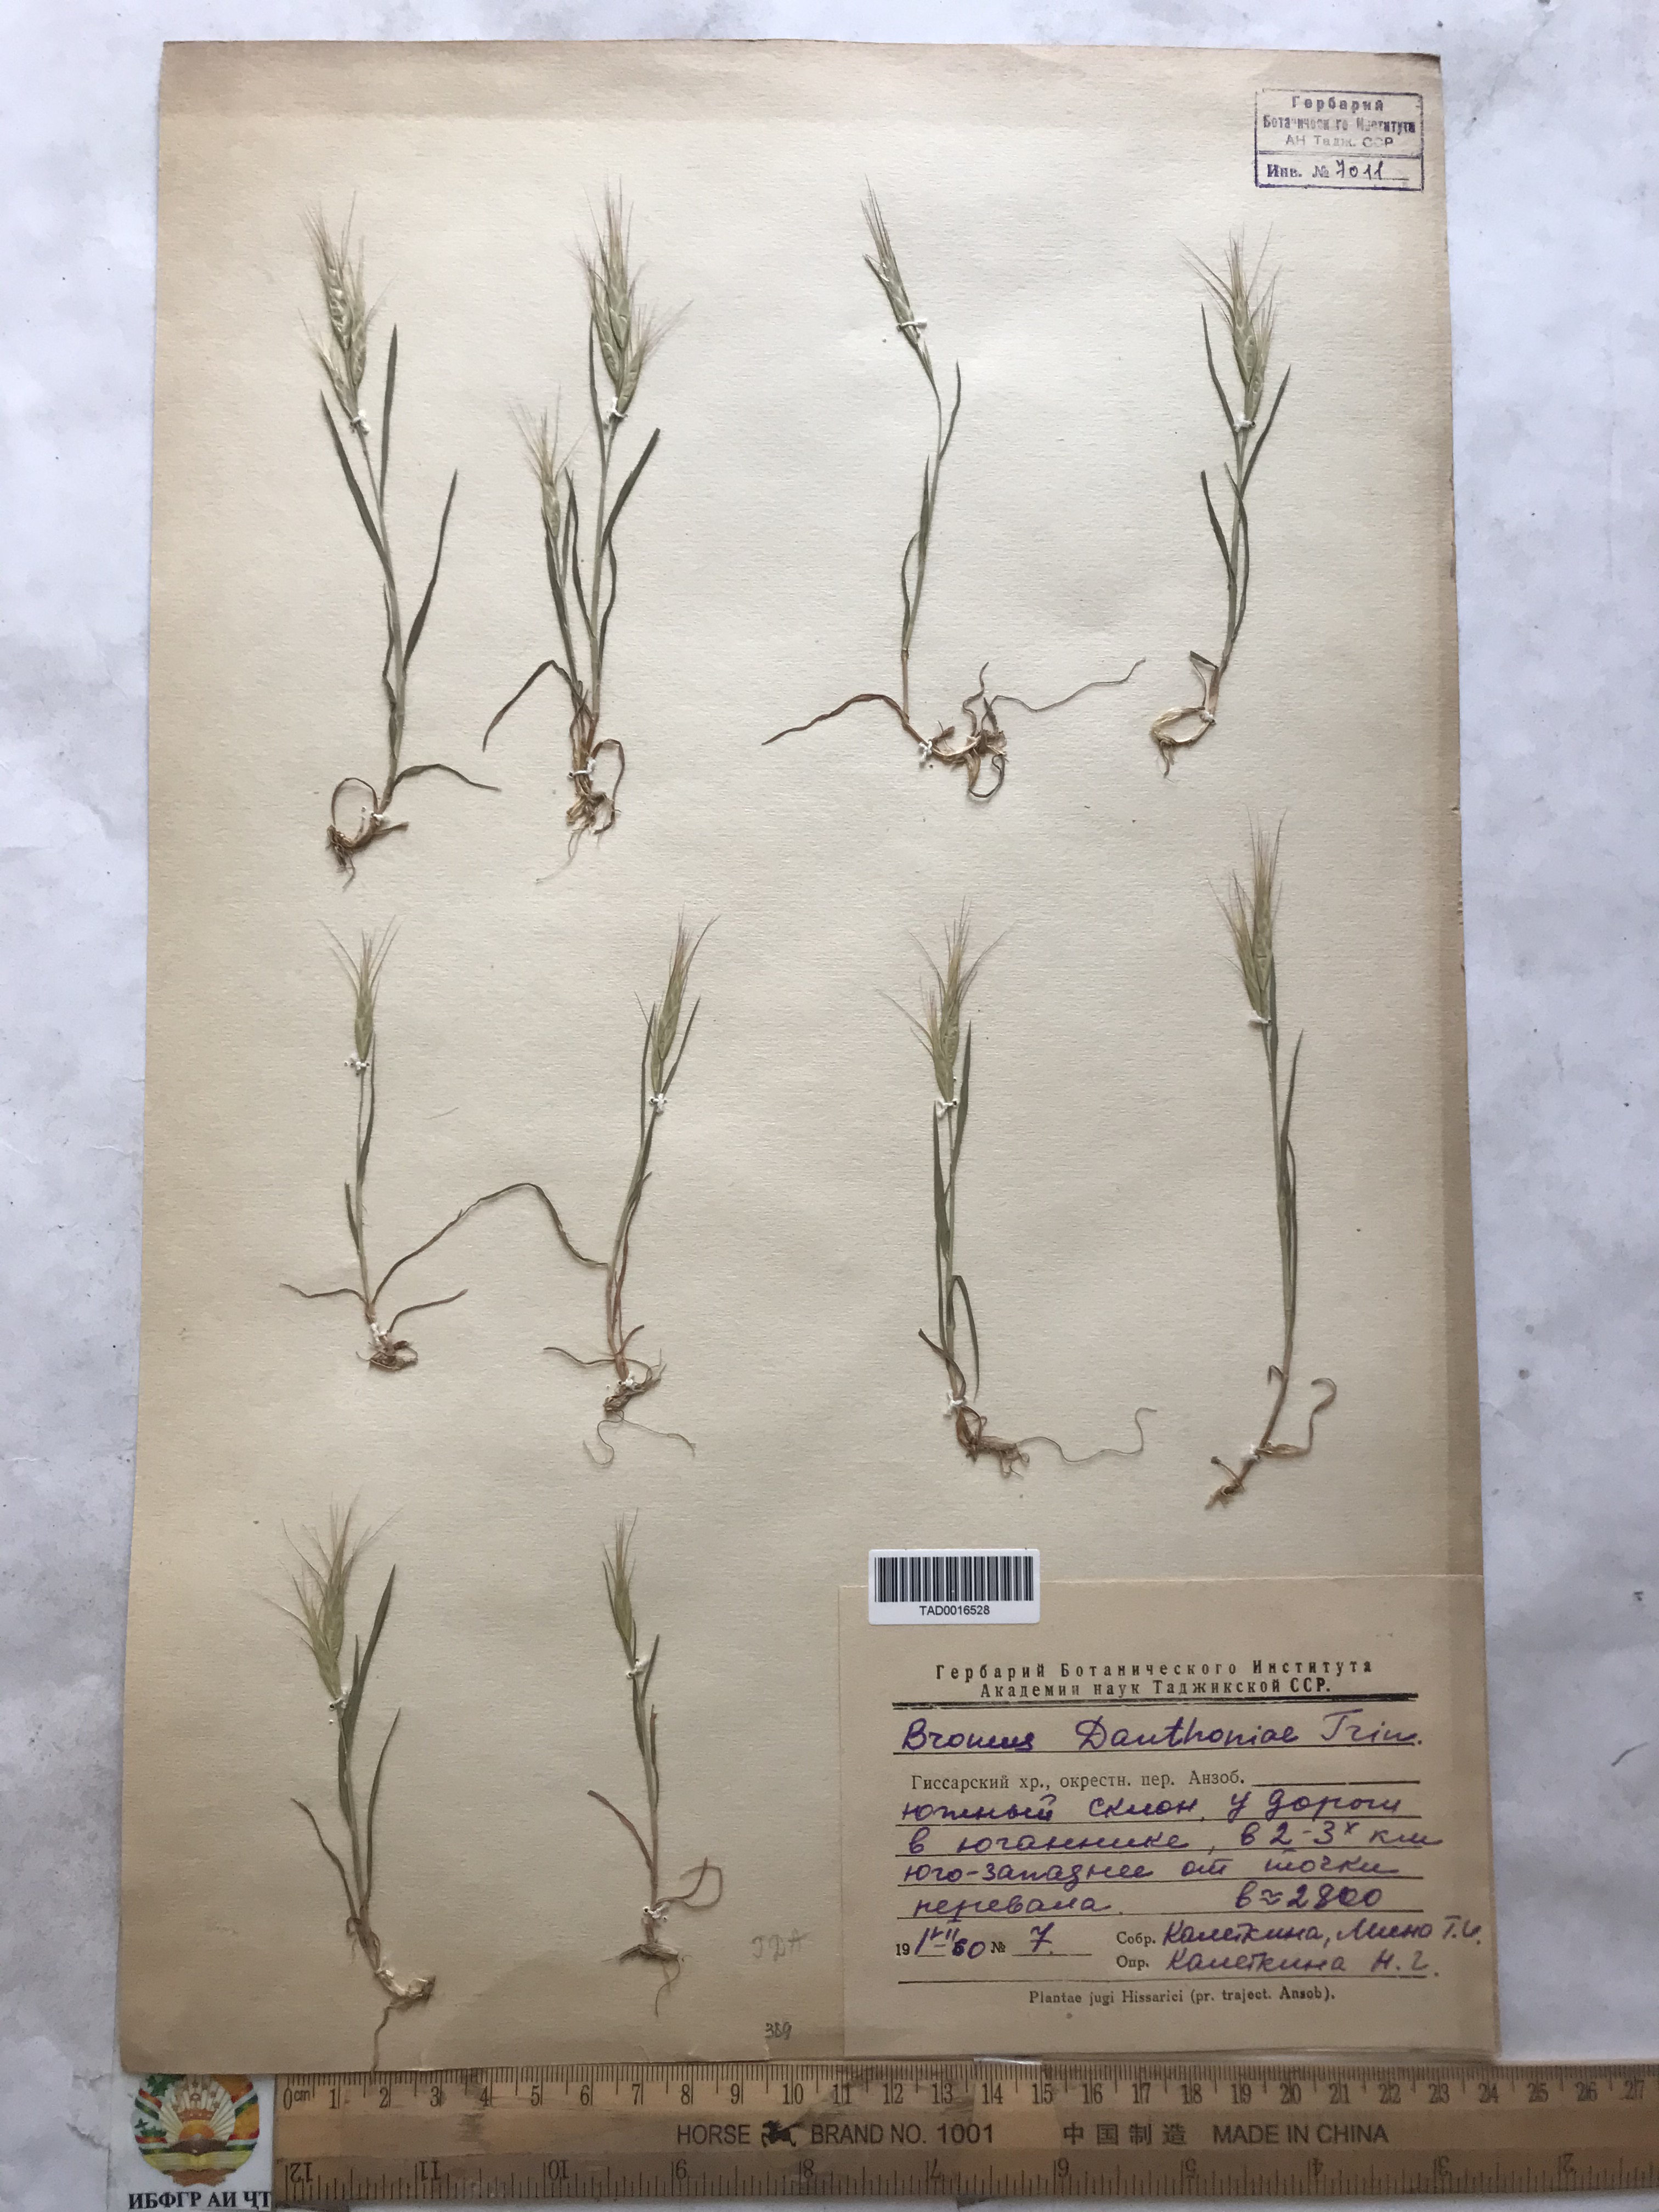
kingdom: Plantae
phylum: Tracheophyta
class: Liliopsida
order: Poales
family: Poaceae
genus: Bromus
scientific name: Bromus danthoniae
